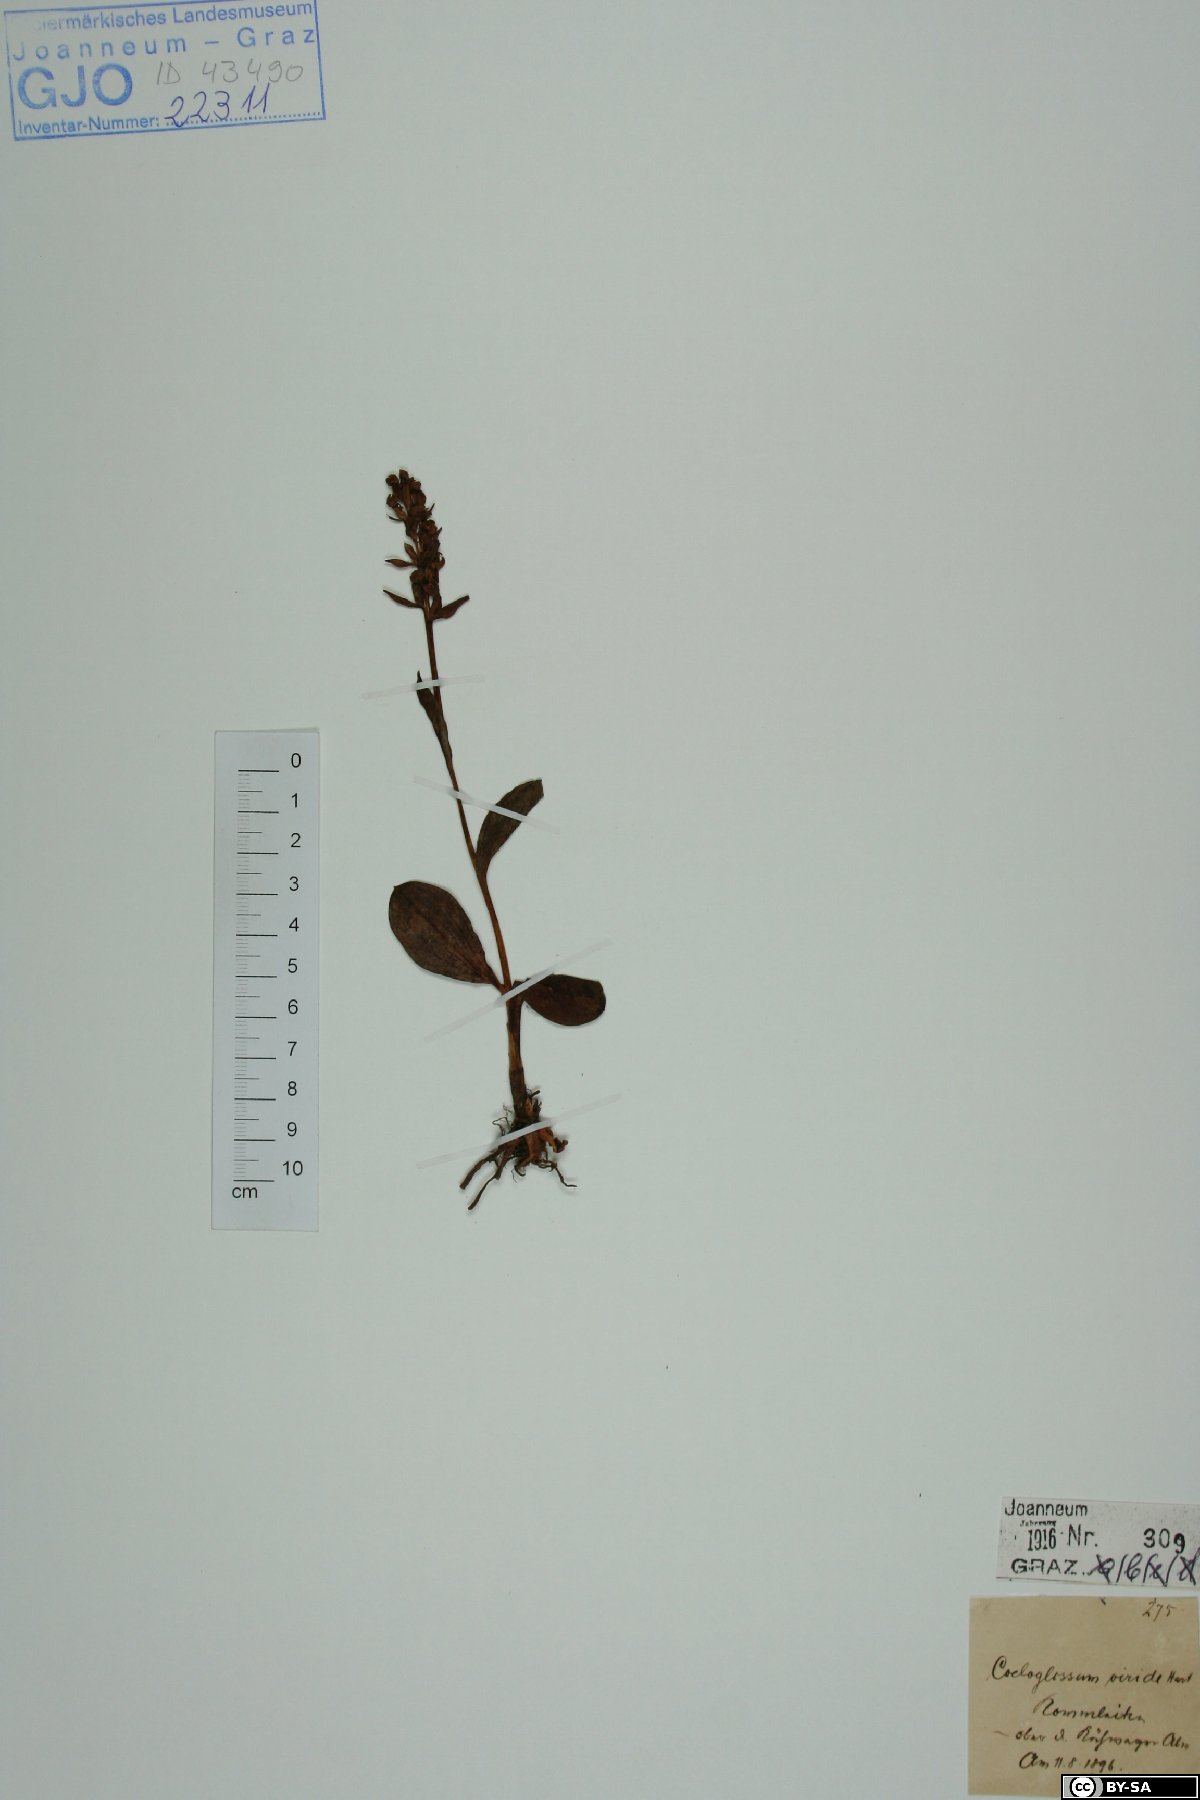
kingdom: Plantae
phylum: Tracheophyta
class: Liliopsida
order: Asparagales
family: Orchidaceae
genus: Dactylorhiza
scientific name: Dactylorhiza viridis
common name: Longbract frog orchid
